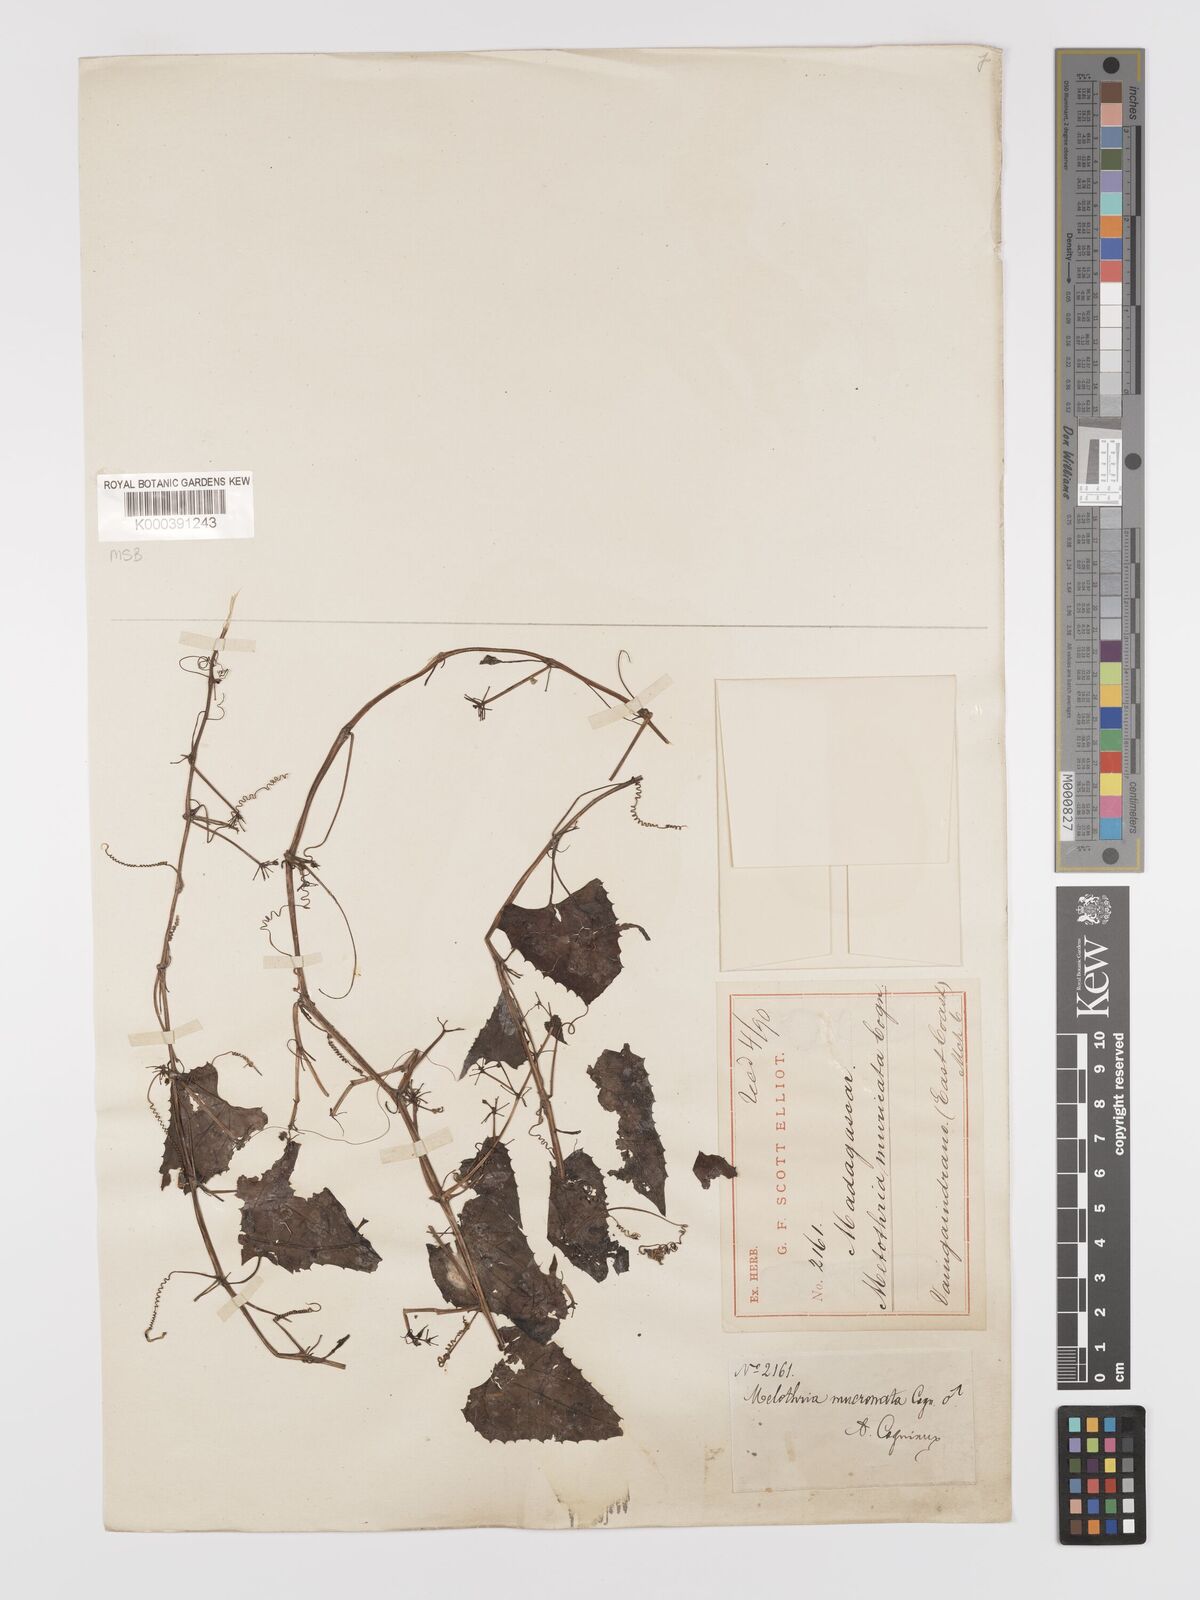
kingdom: Plantae
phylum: Tracheophyta
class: Magnoliopsida
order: Cucurbitales
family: Cucurbitaceae
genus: Zehneria
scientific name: Zehneria emirnensis
